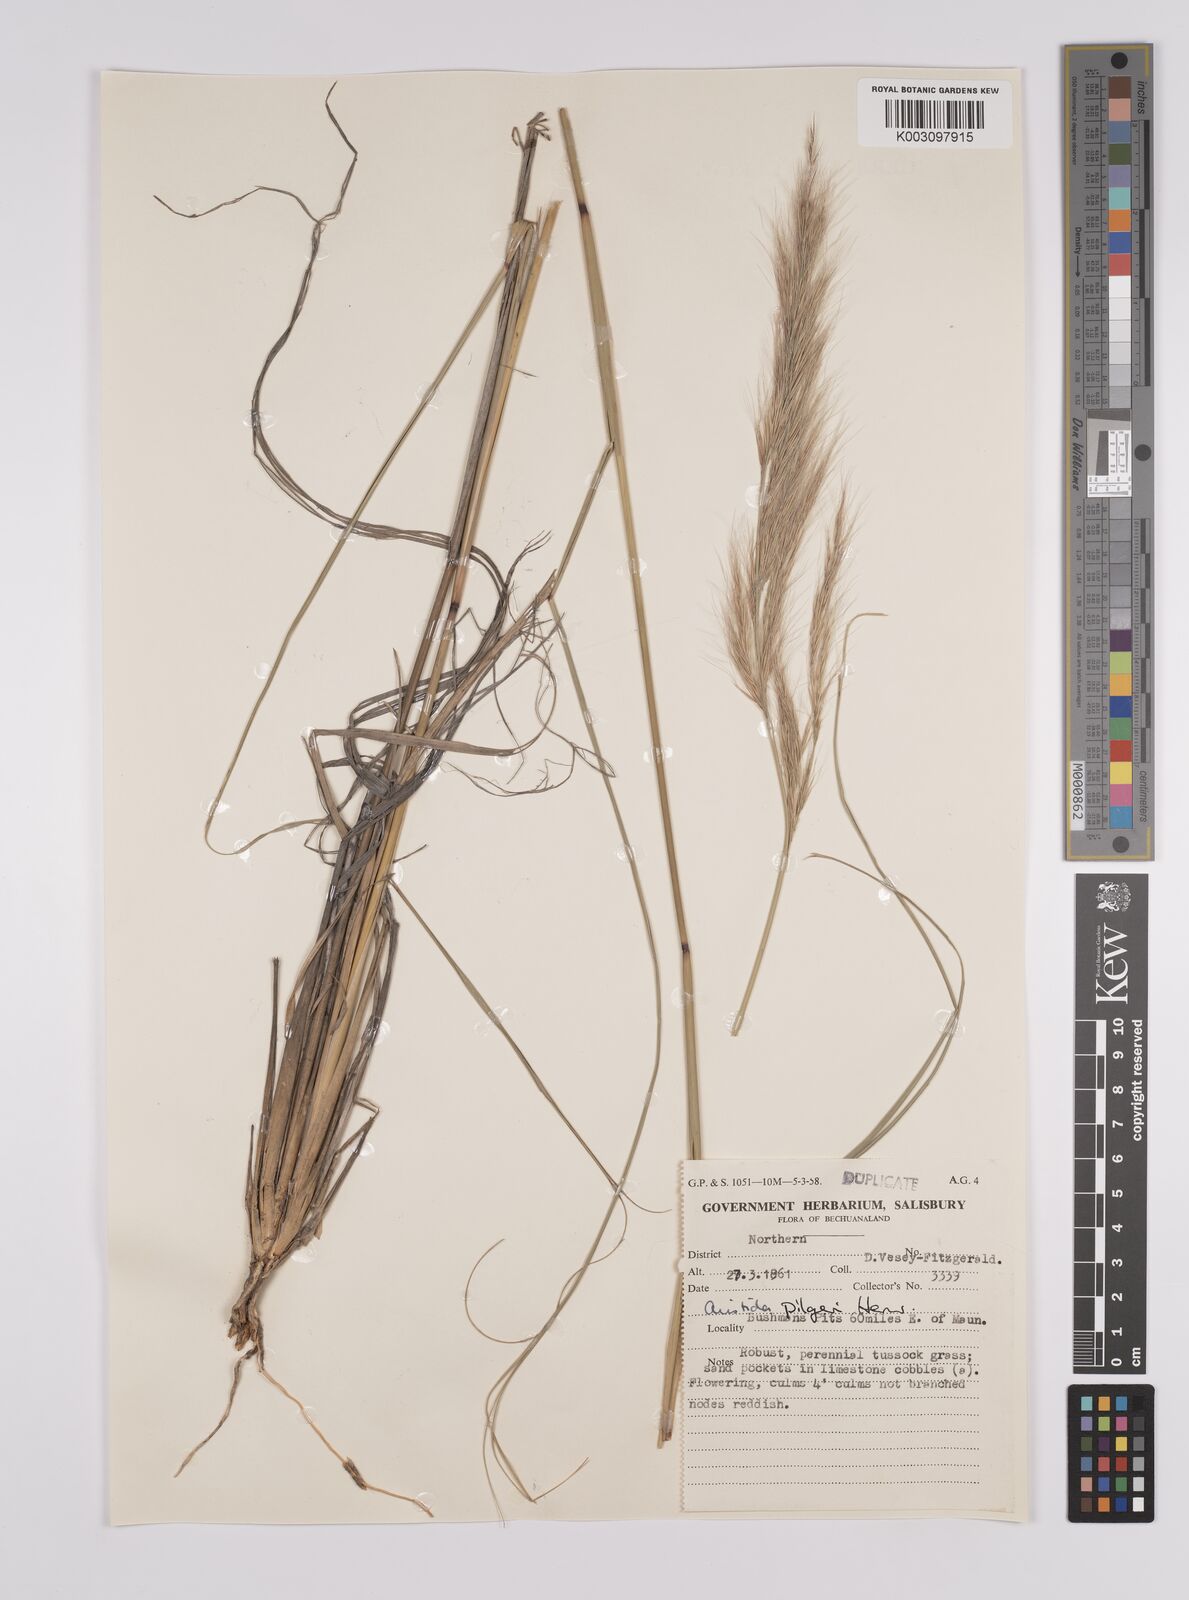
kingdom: Plantae
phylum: Tracheophyta
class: Liliopsida
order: Poales
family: Poaceae
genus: Aristida
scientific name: Aristida pilgeri
